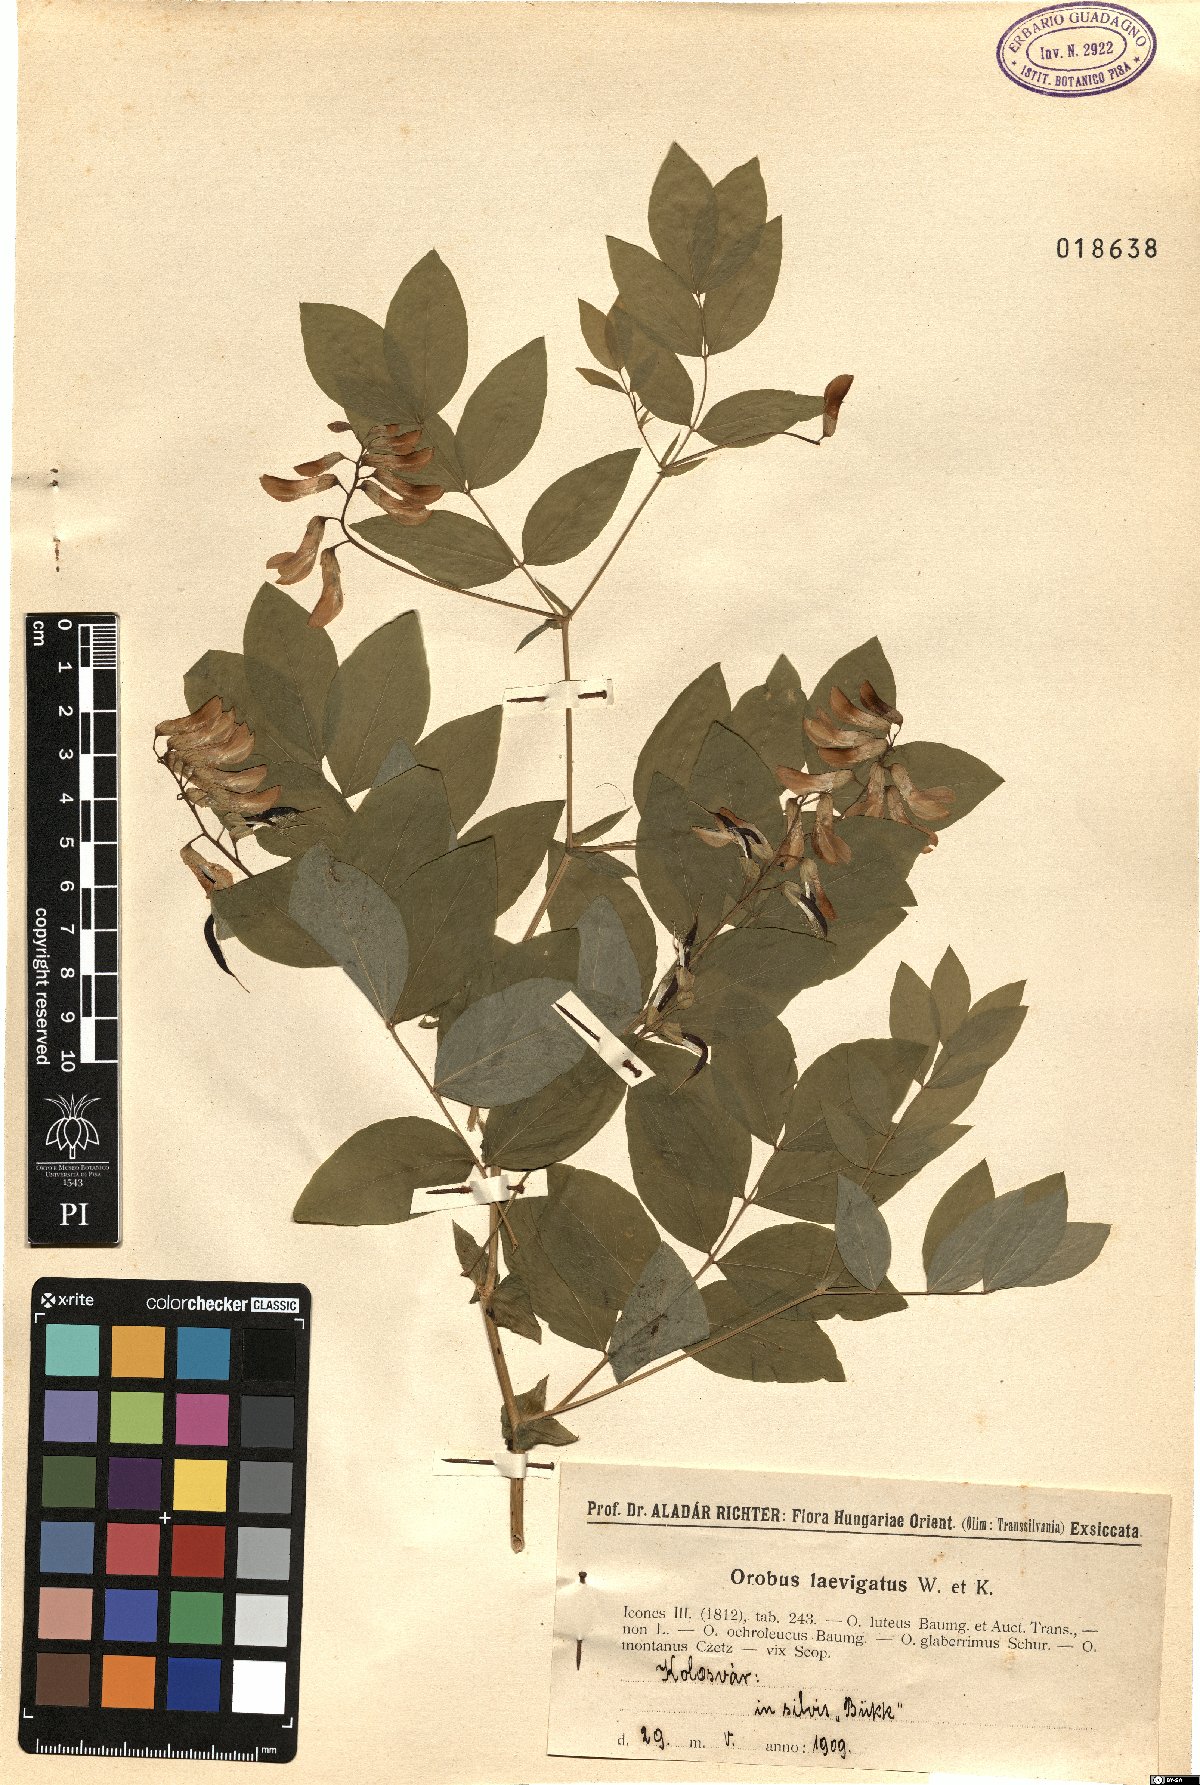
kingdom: Plantae
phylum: Tracheophyta
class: Magnoliopsida
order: Fabales
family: Fabaceae
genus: Lathyrus
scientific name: Lathyrus laevigatus
